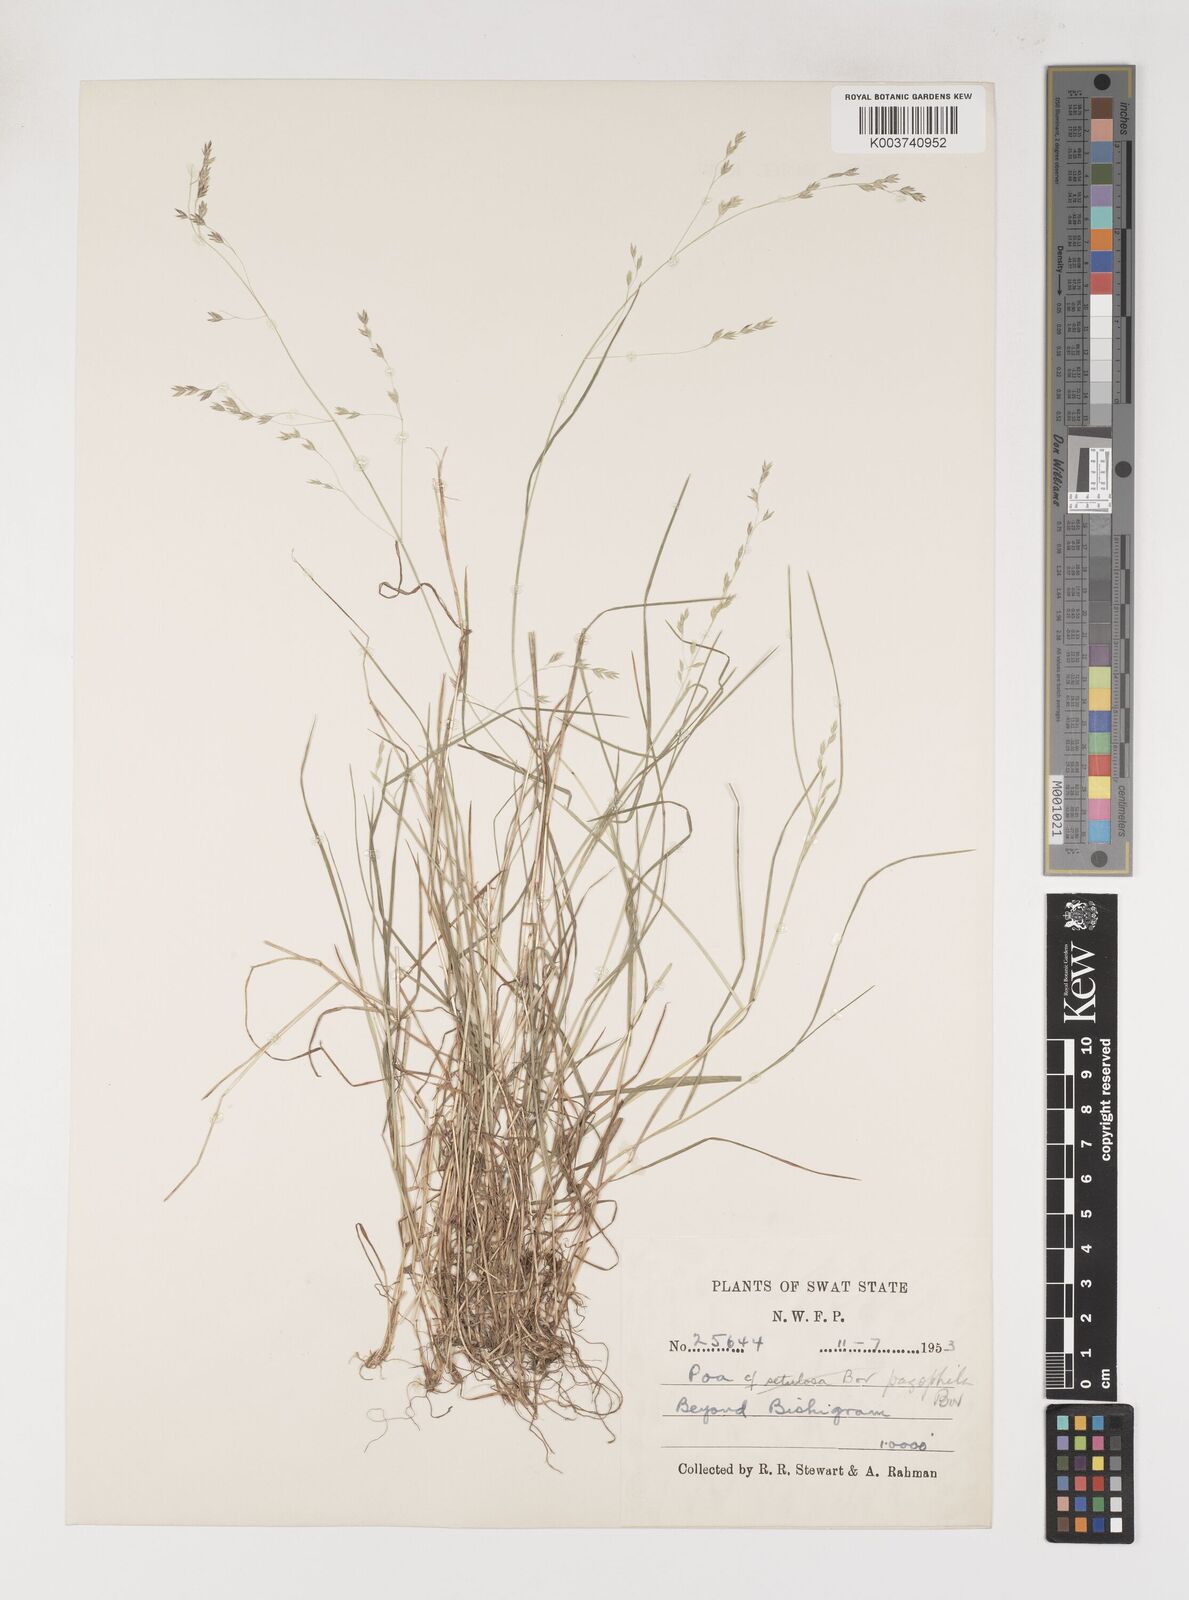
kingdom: Plantae
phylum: Tracheophyta
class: Liliopsida
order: Poales
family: Poaceae
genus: Poa
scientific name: Poa pagophila
